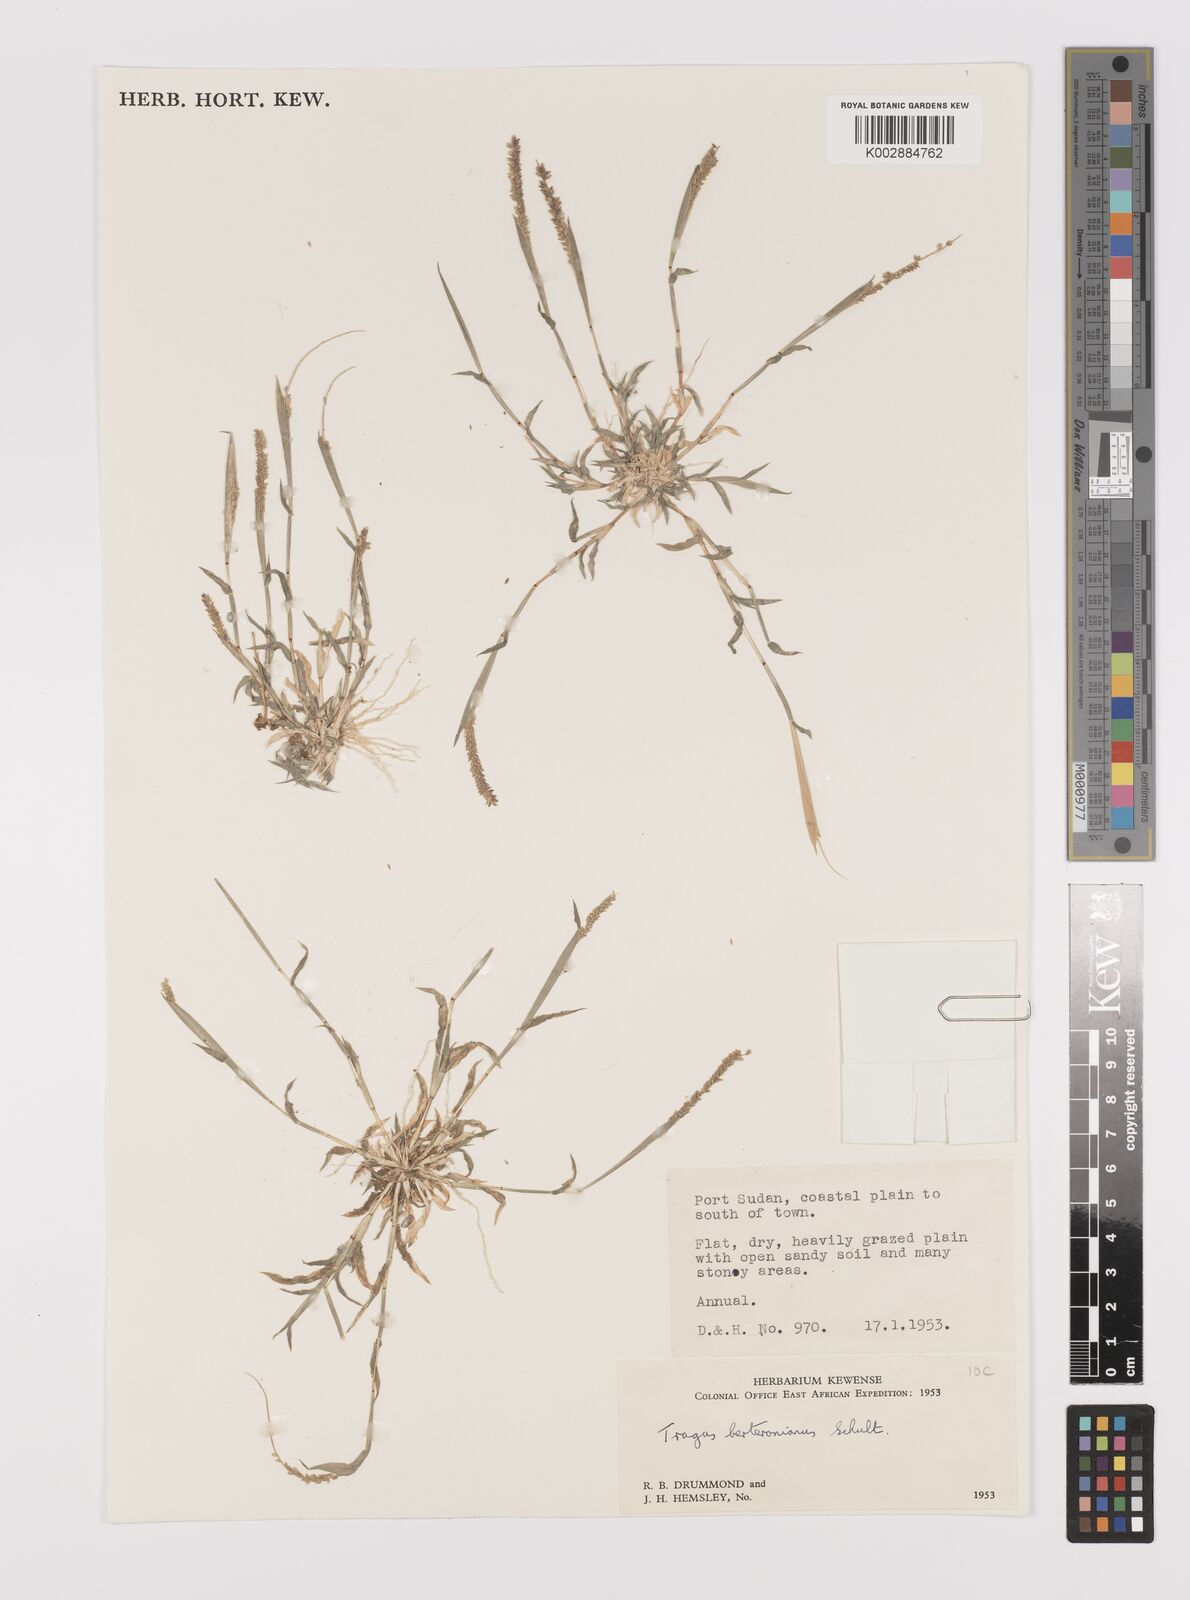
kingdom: Plantae
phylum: Tracheophyta
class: Liliopsida
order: Poales
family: Poaceae
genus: Tragus
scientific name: Tragus berteronianus
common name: African bur-grass
